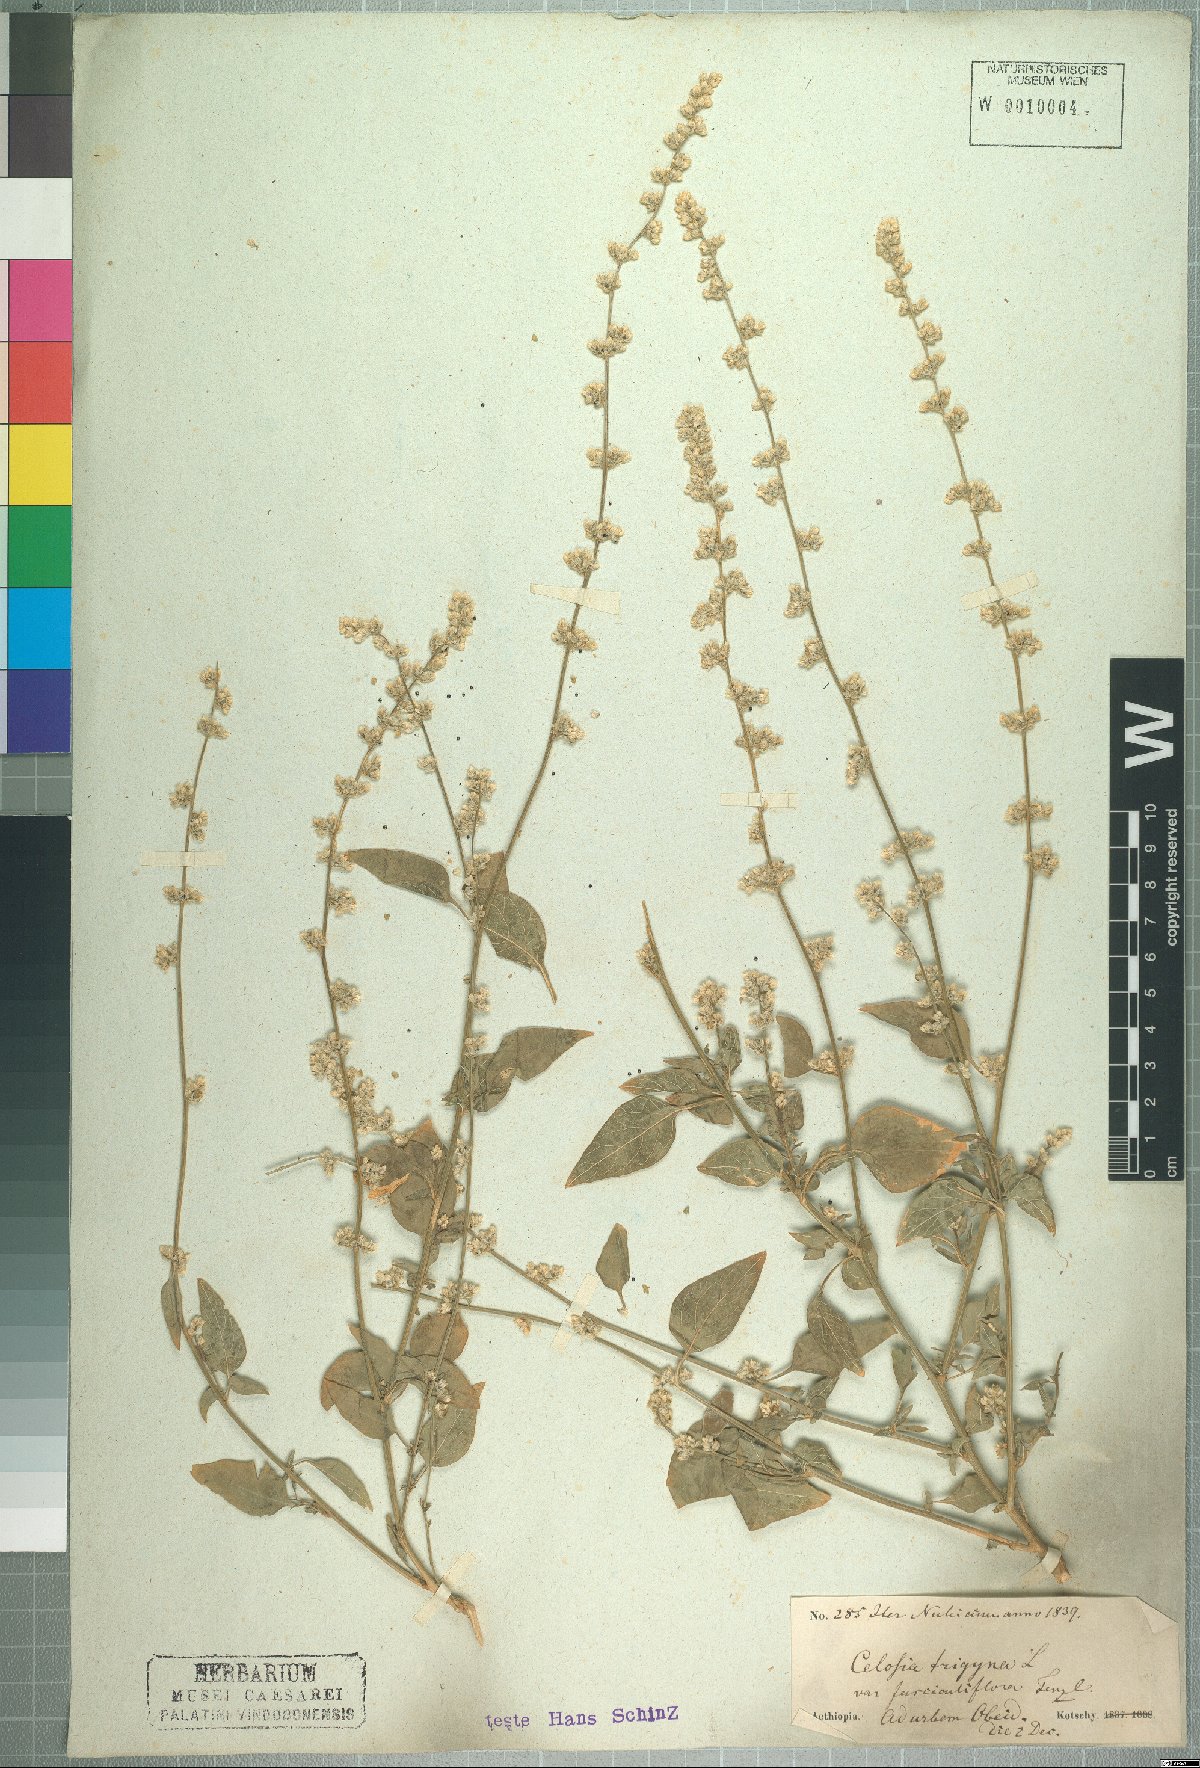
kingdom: Plantae
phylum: Tracheophyta
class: Magnoliopsida
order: Caryophyllales
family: Amaranthaceae
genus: Celosia
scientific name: Celosia trigyna
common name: Woolflower
